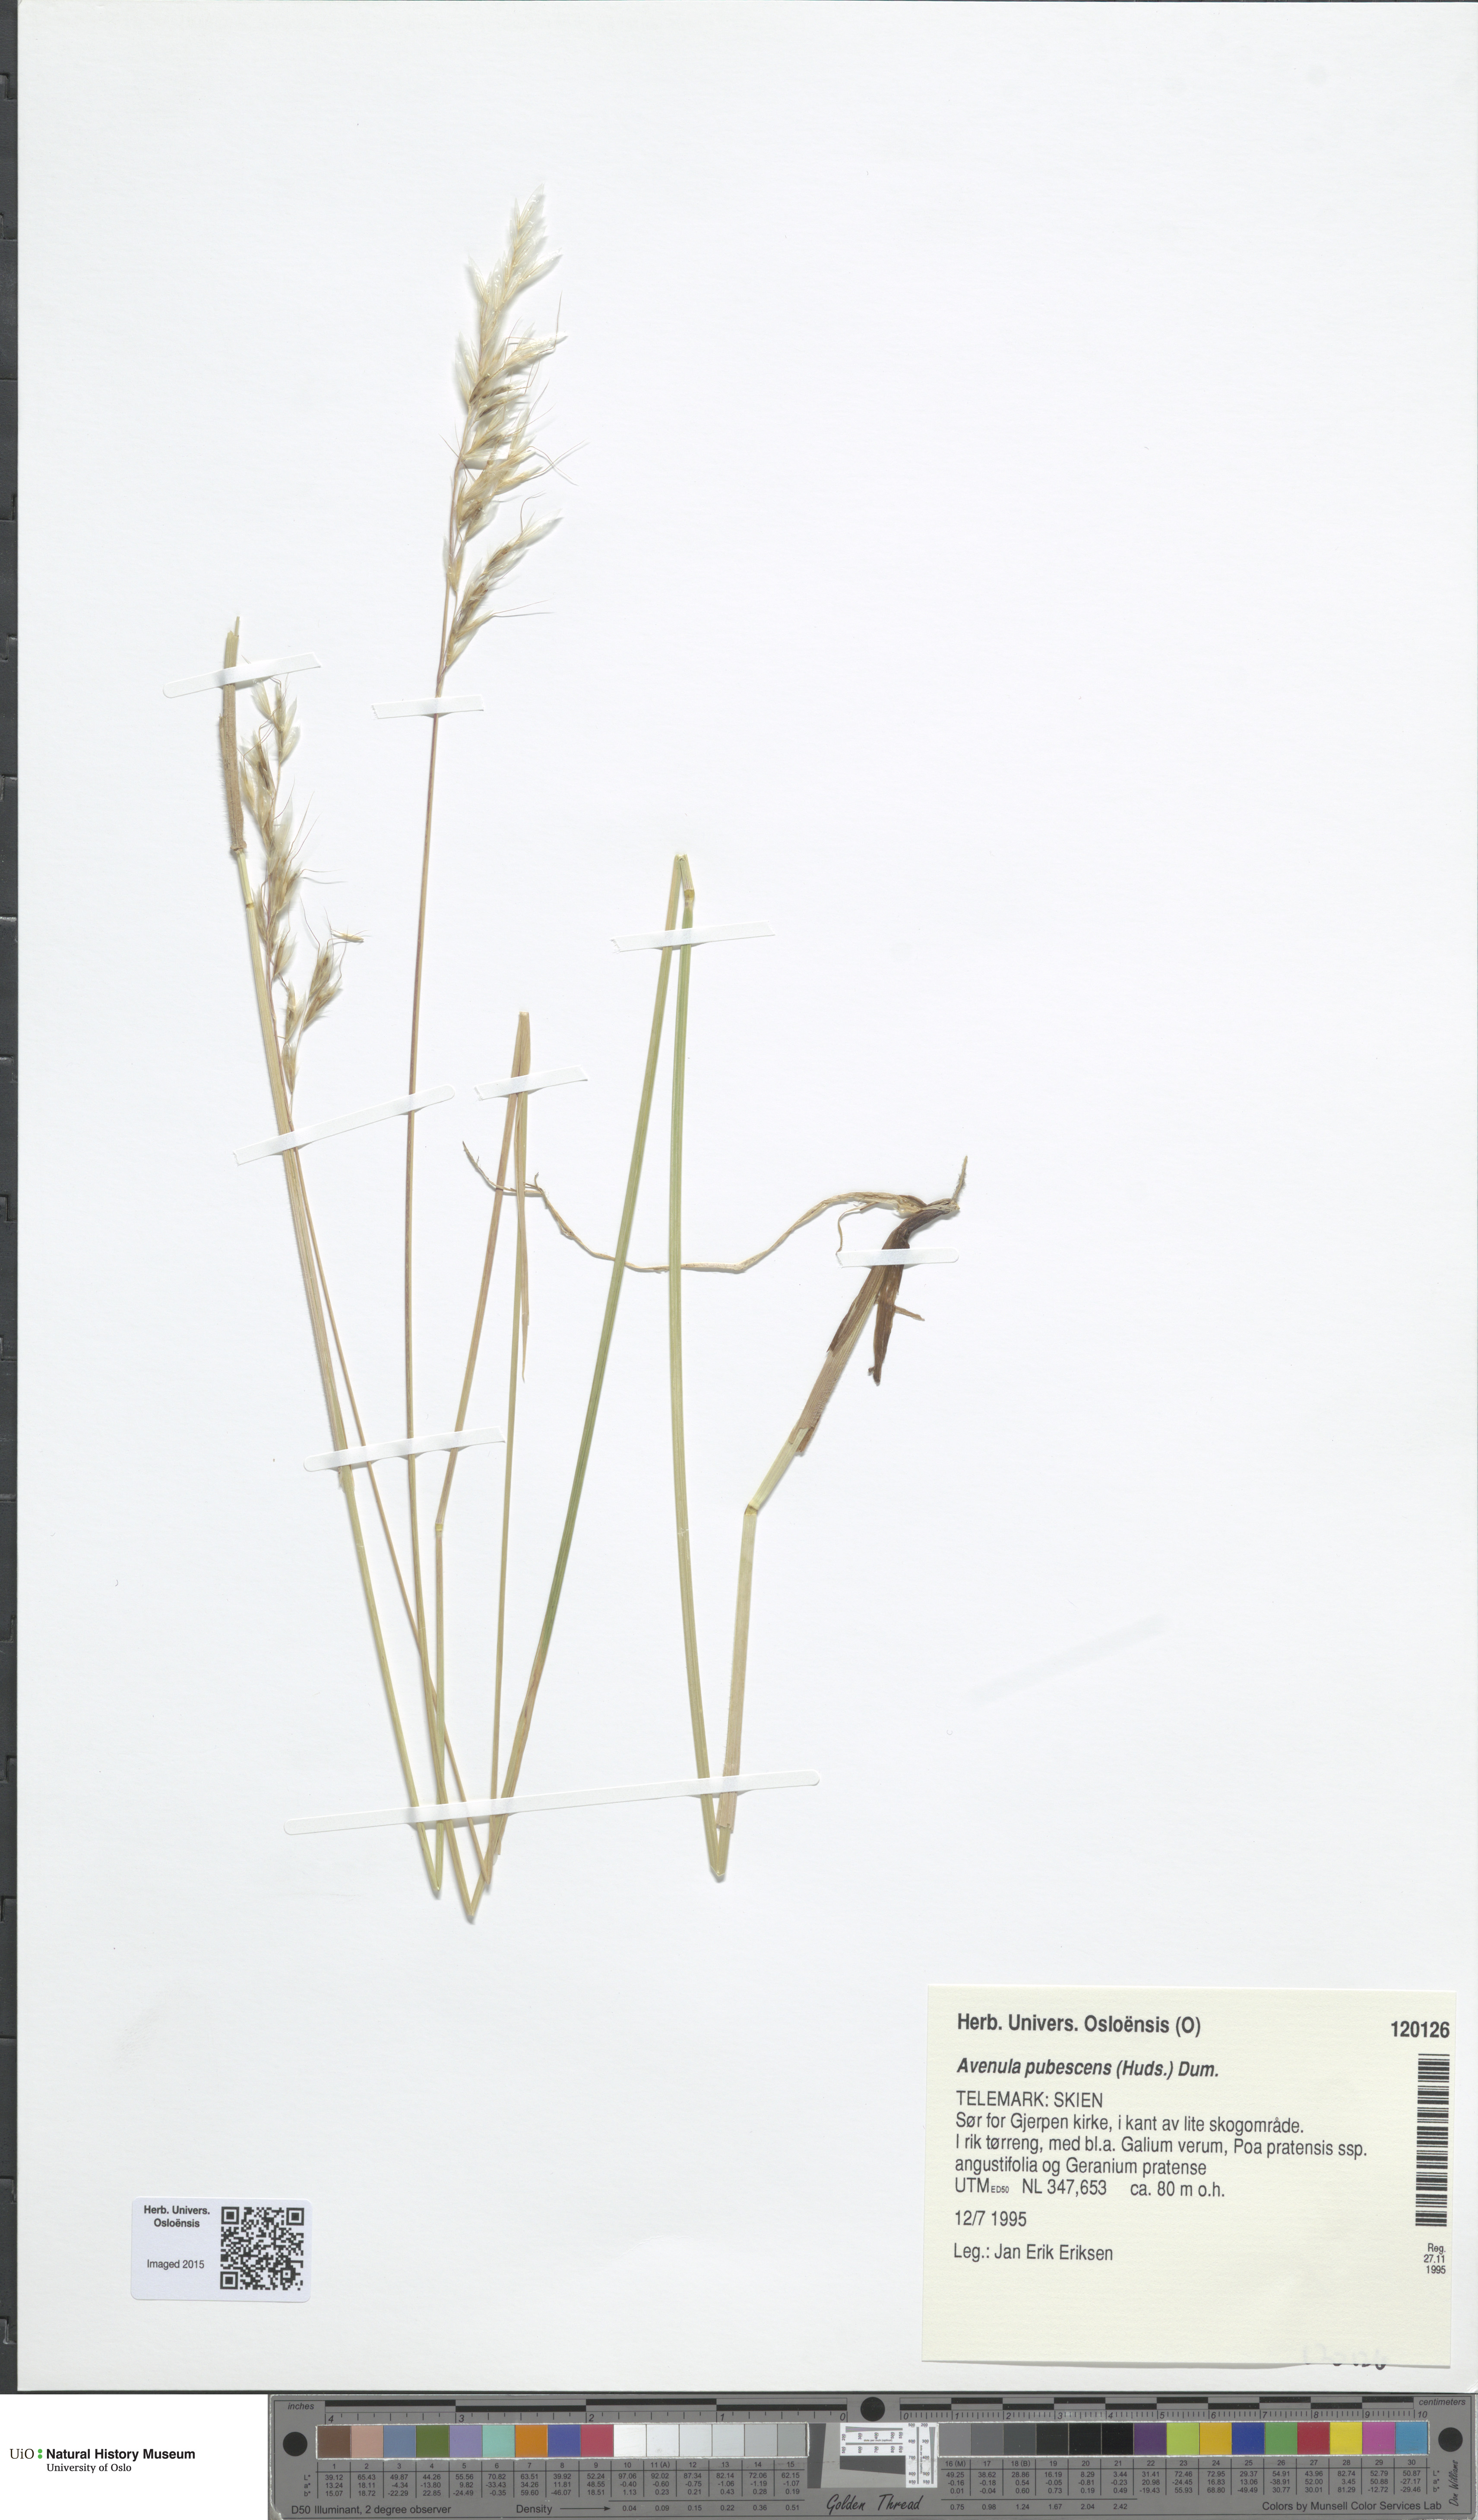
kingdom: Plantae
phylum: Tracheophyta
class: Liliopsida
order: Poales
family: Poaceae
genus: Avenula
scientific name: Avenula pubescens
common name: Downy alpine oatgrass
